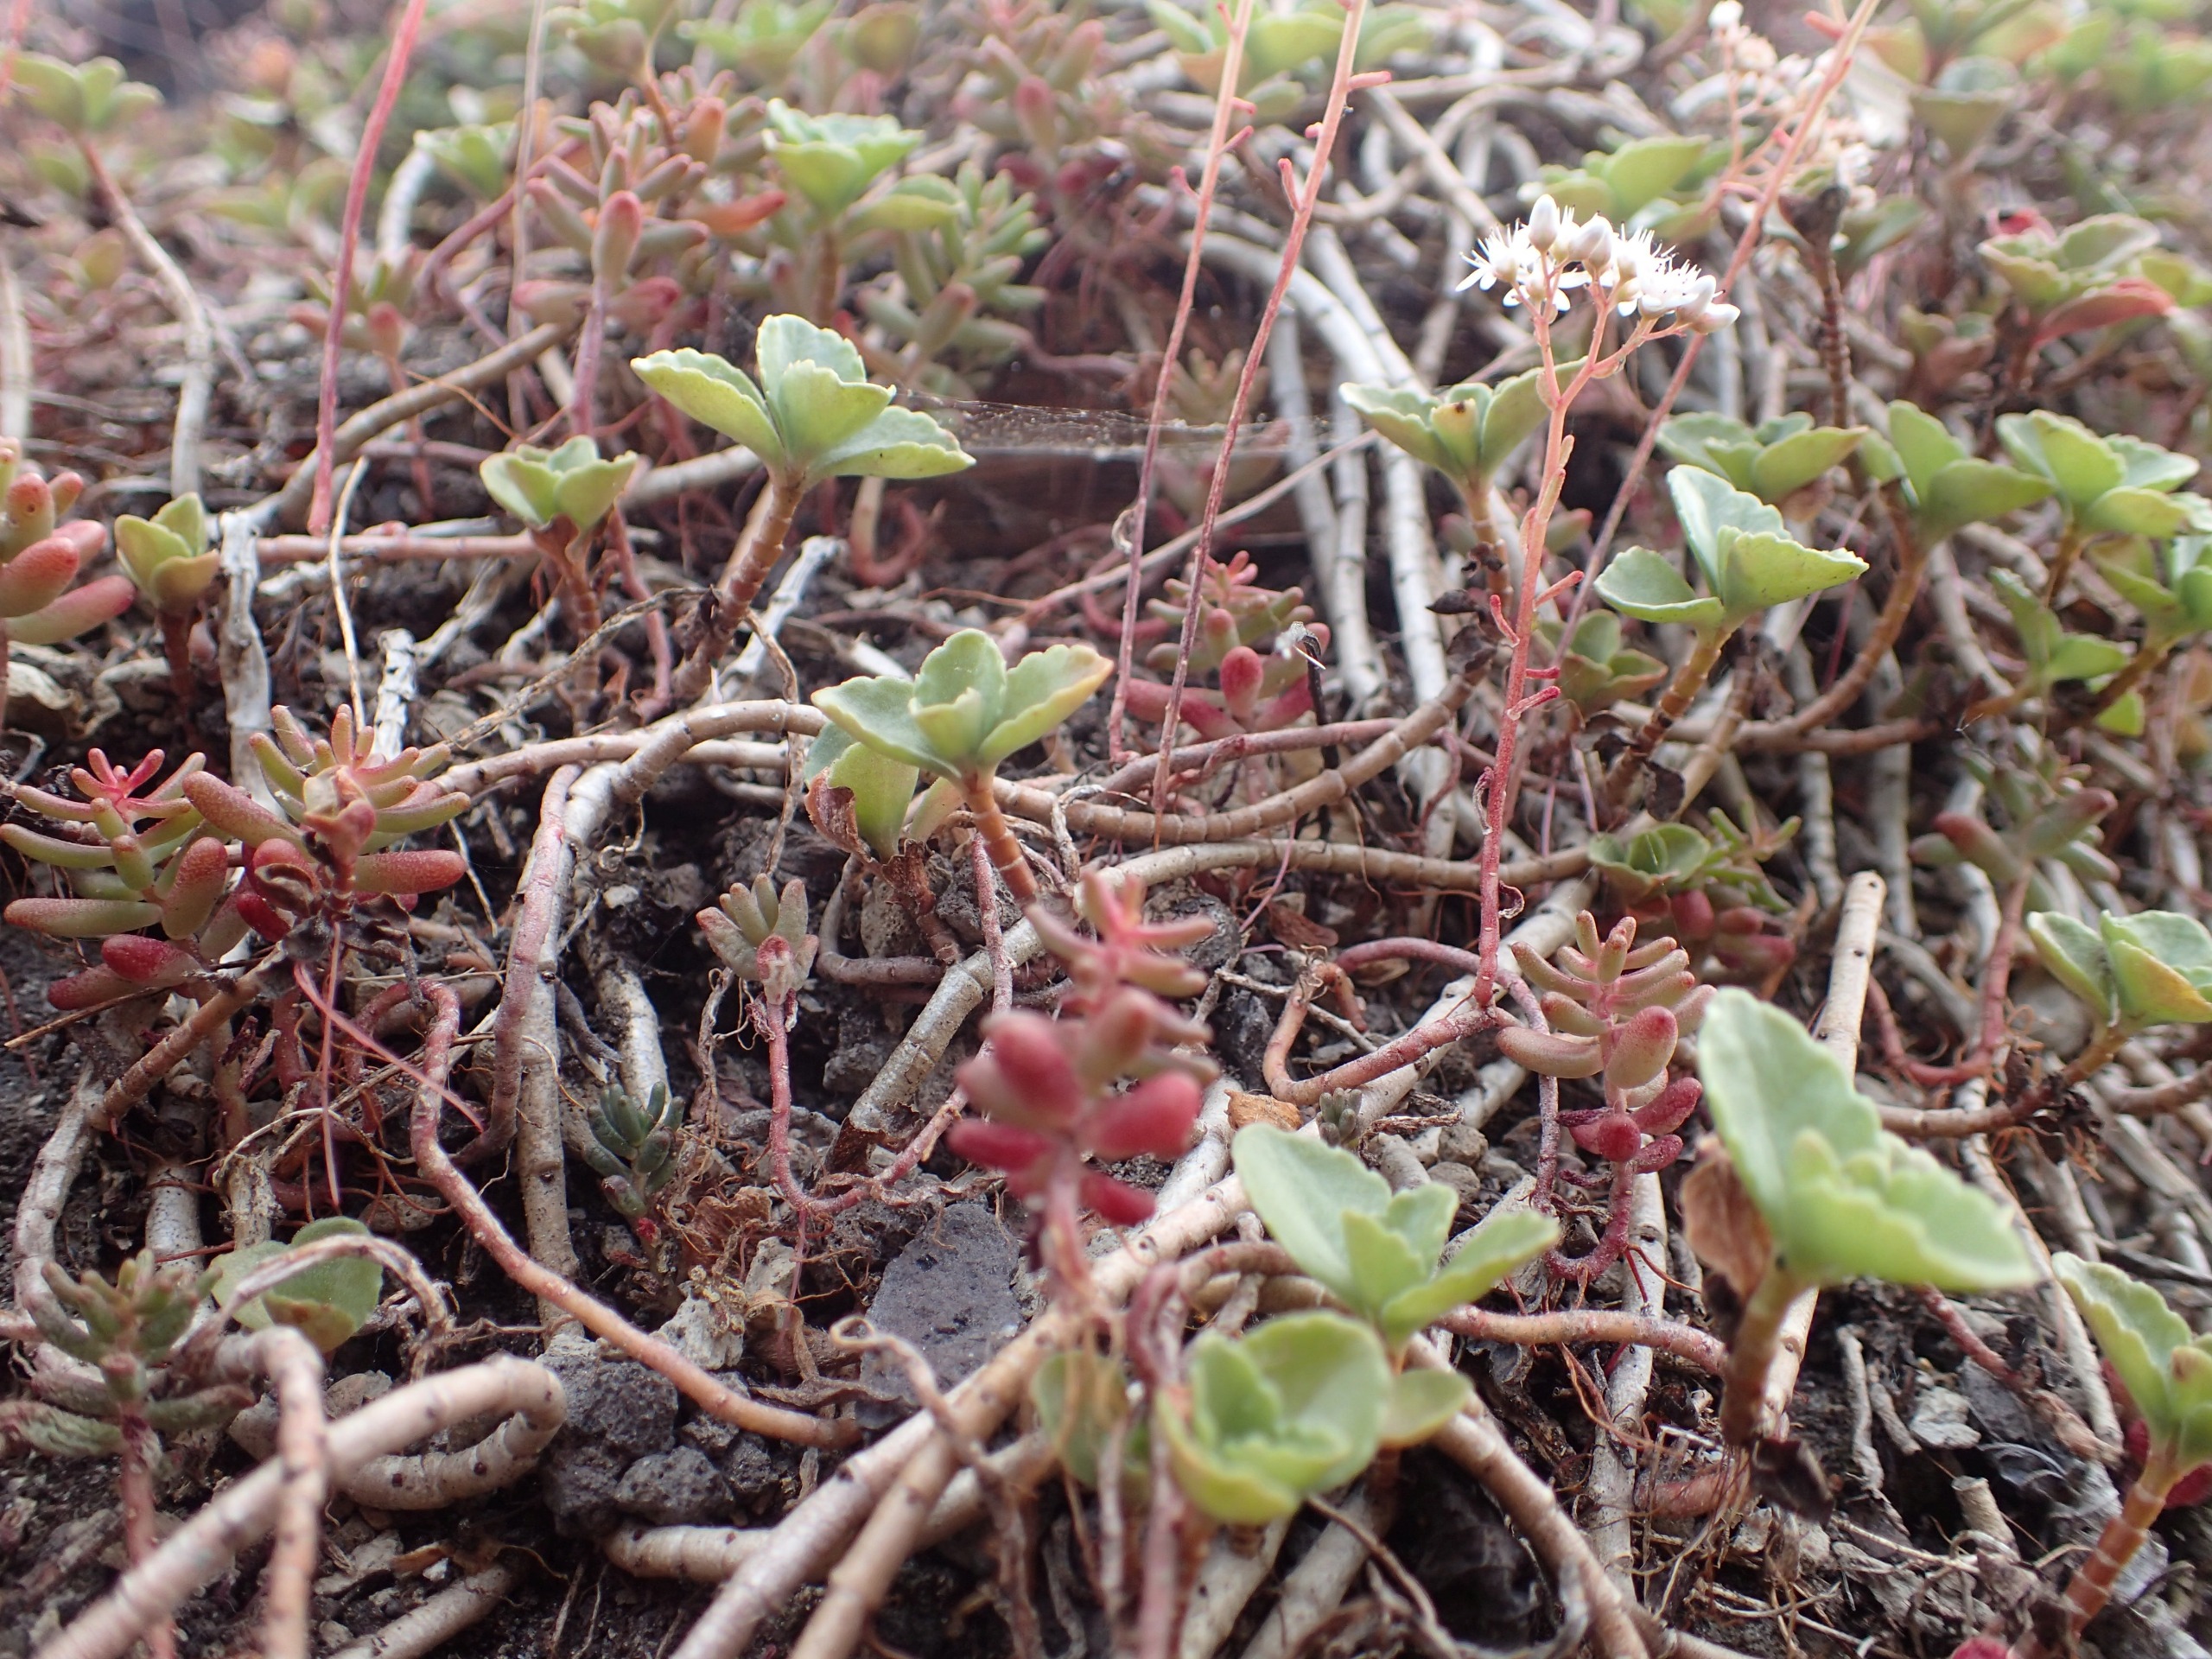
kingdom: Plantae
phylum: Tracheophyta
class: Magnoliopsida
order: Saxifragales
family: Crassulaceae
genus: Sedum
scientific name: Sedum album
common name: Hvid stenurt
